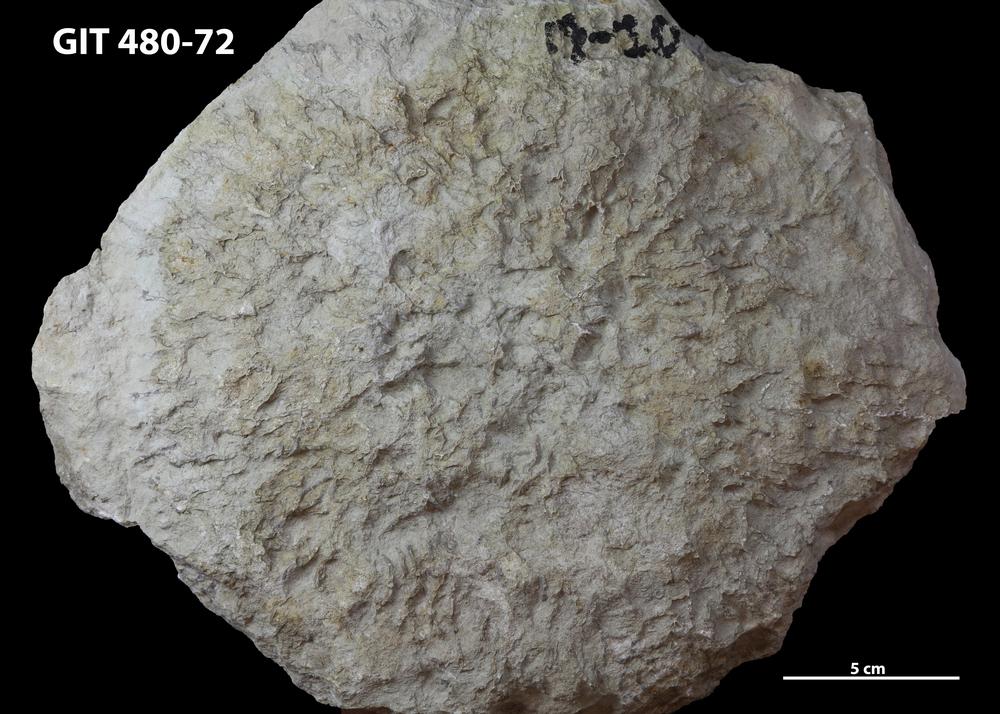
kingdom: Animalia
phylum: Cnidaria
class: Anthozoa
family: Cateniporidae
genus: Catenipora
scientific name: Catenipora
